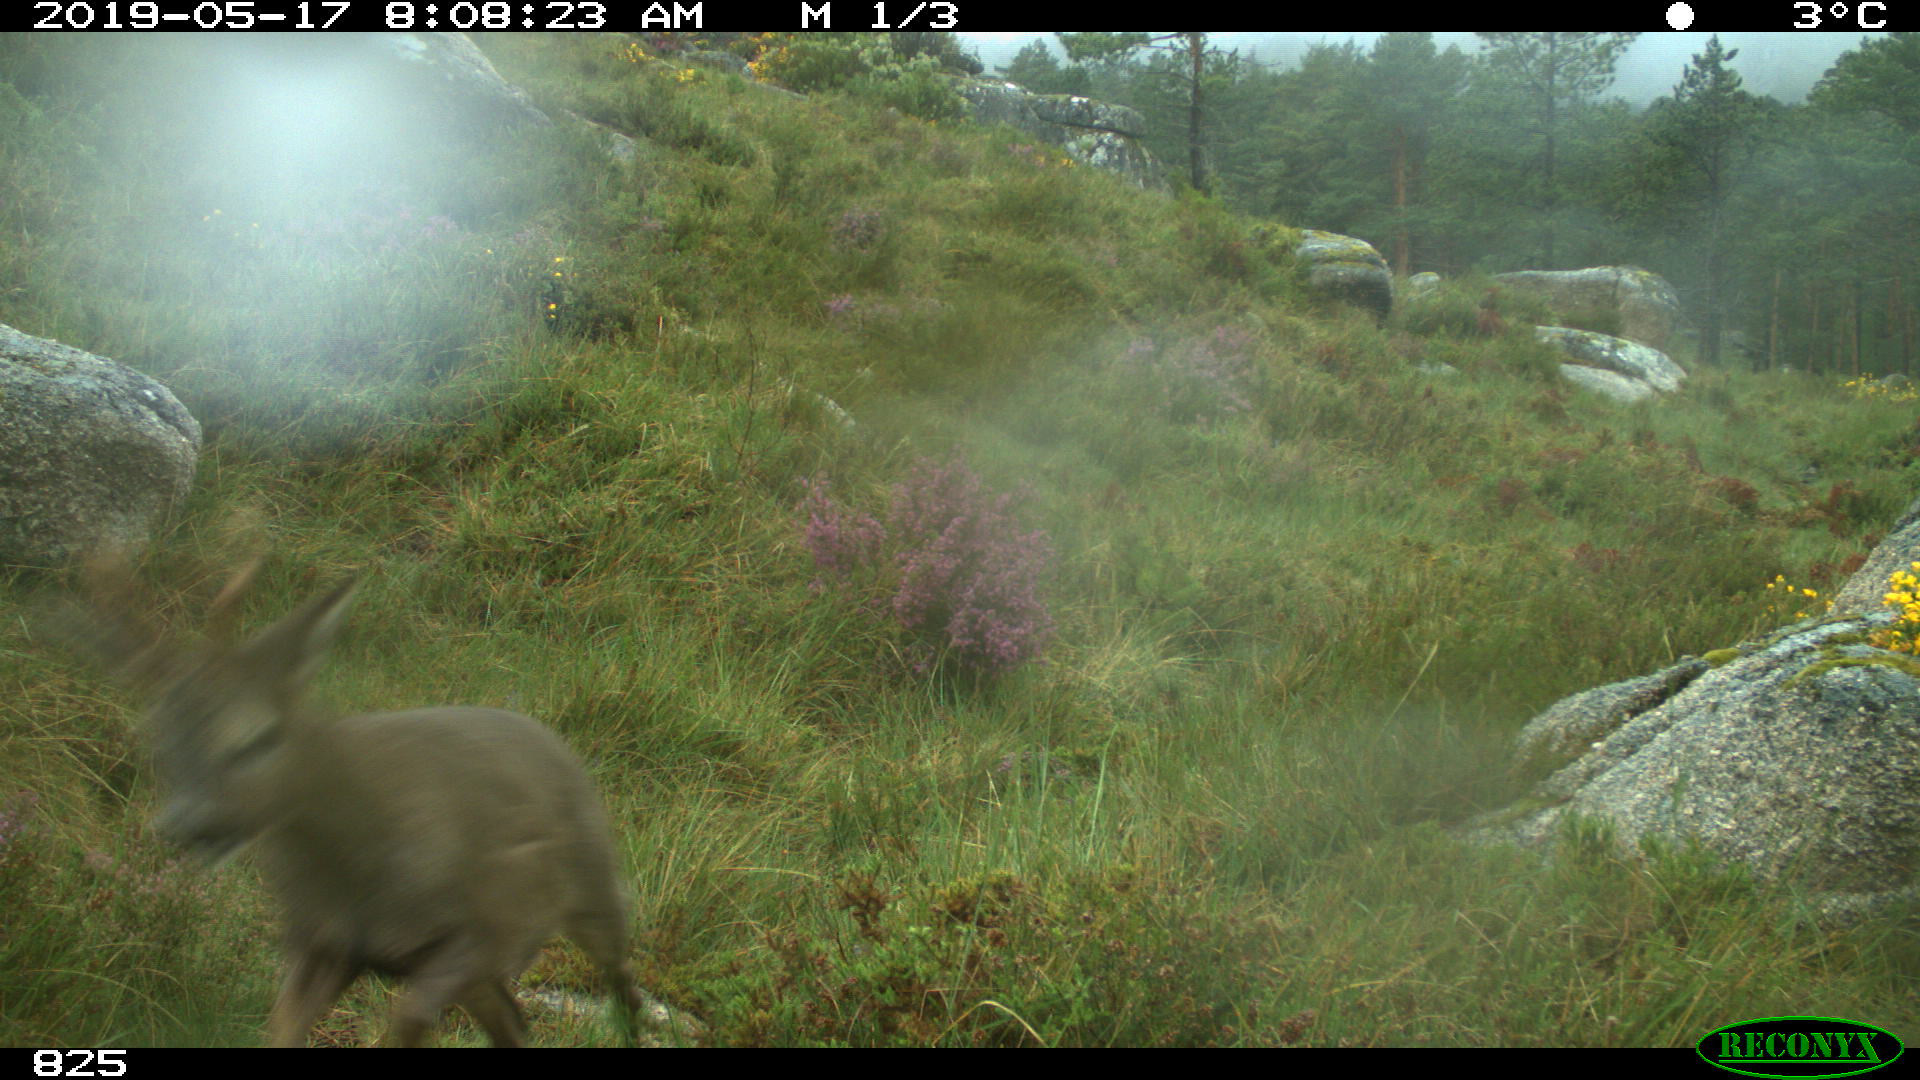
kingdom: Animalia
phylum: Chordata
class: Mammalia
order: Artiodactyla
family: Cervidae
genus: Capreolus
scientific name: Capreolus capreolus
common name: Western roe deer
